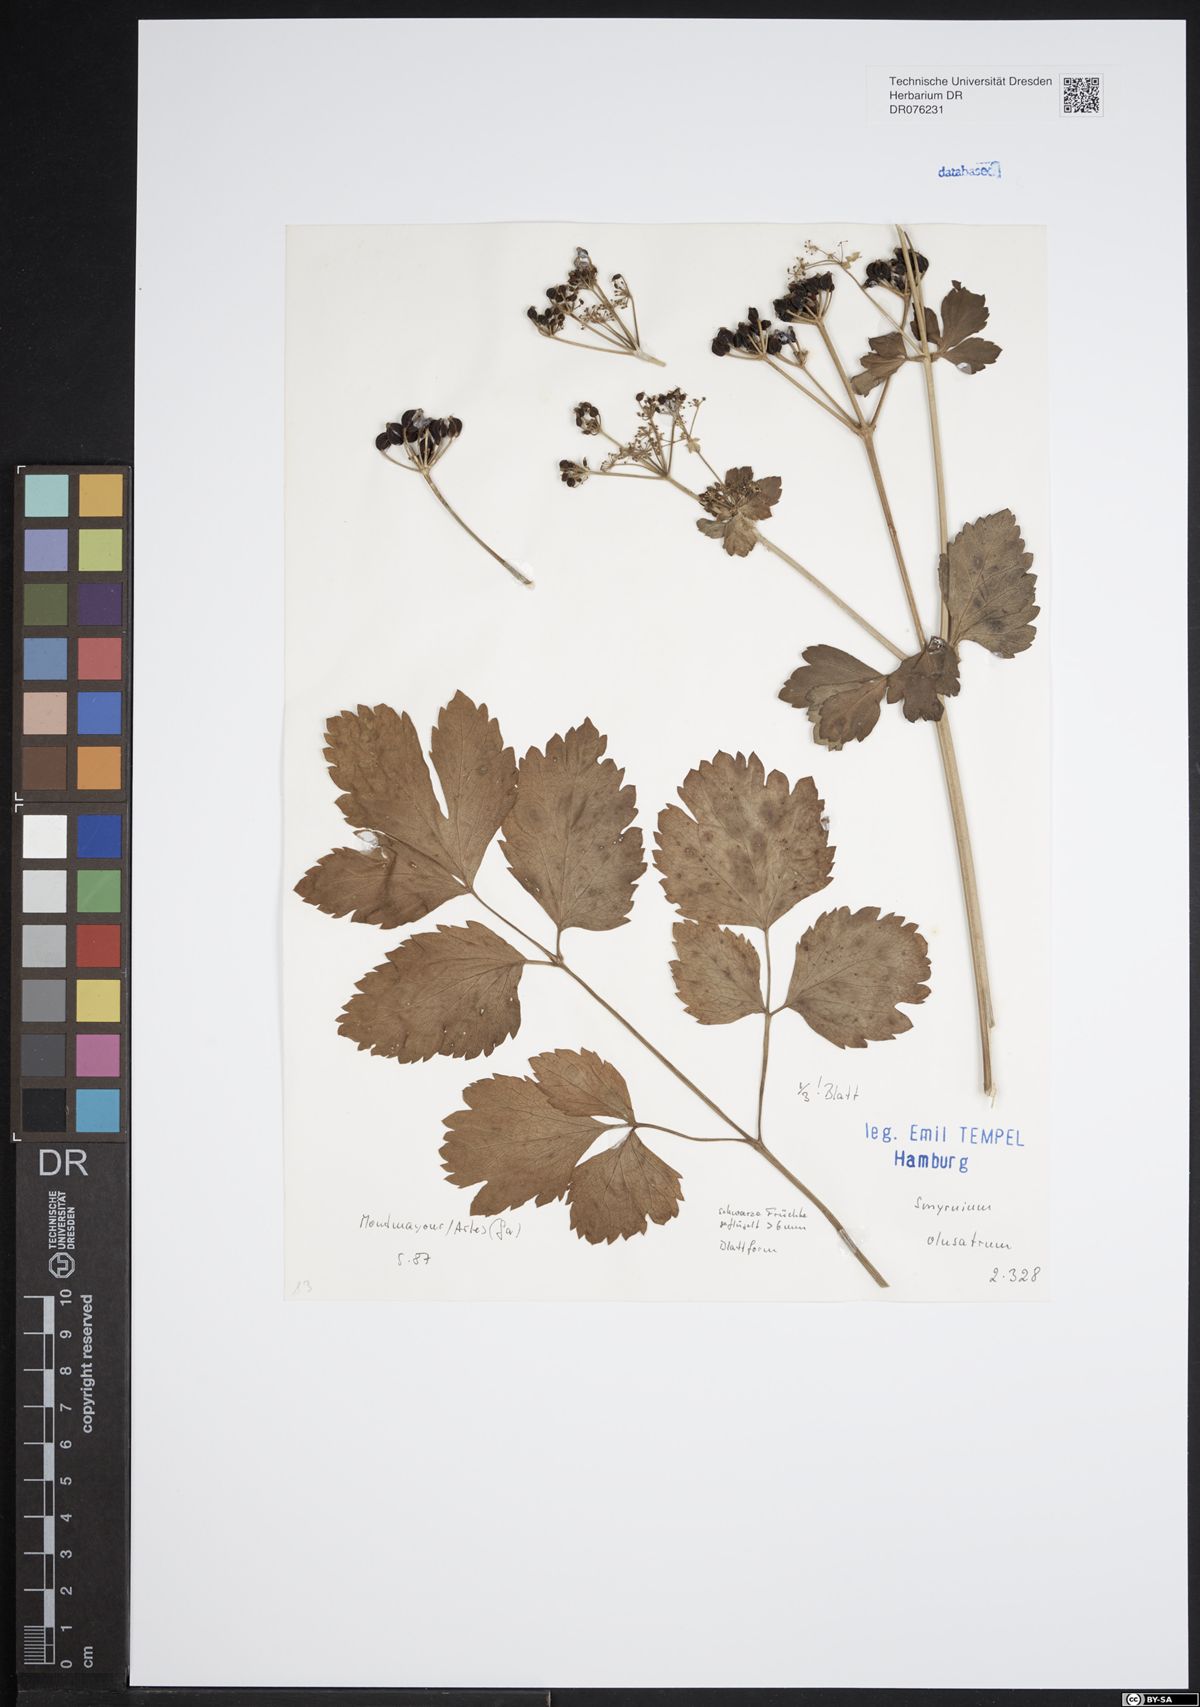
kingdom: Plantae
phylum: Tracheophyta
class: Magnoliopsida
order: Apiales
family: Apiaceae
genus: Smyrnium
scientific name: Smyrnium olusatrum
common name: Alexanders
